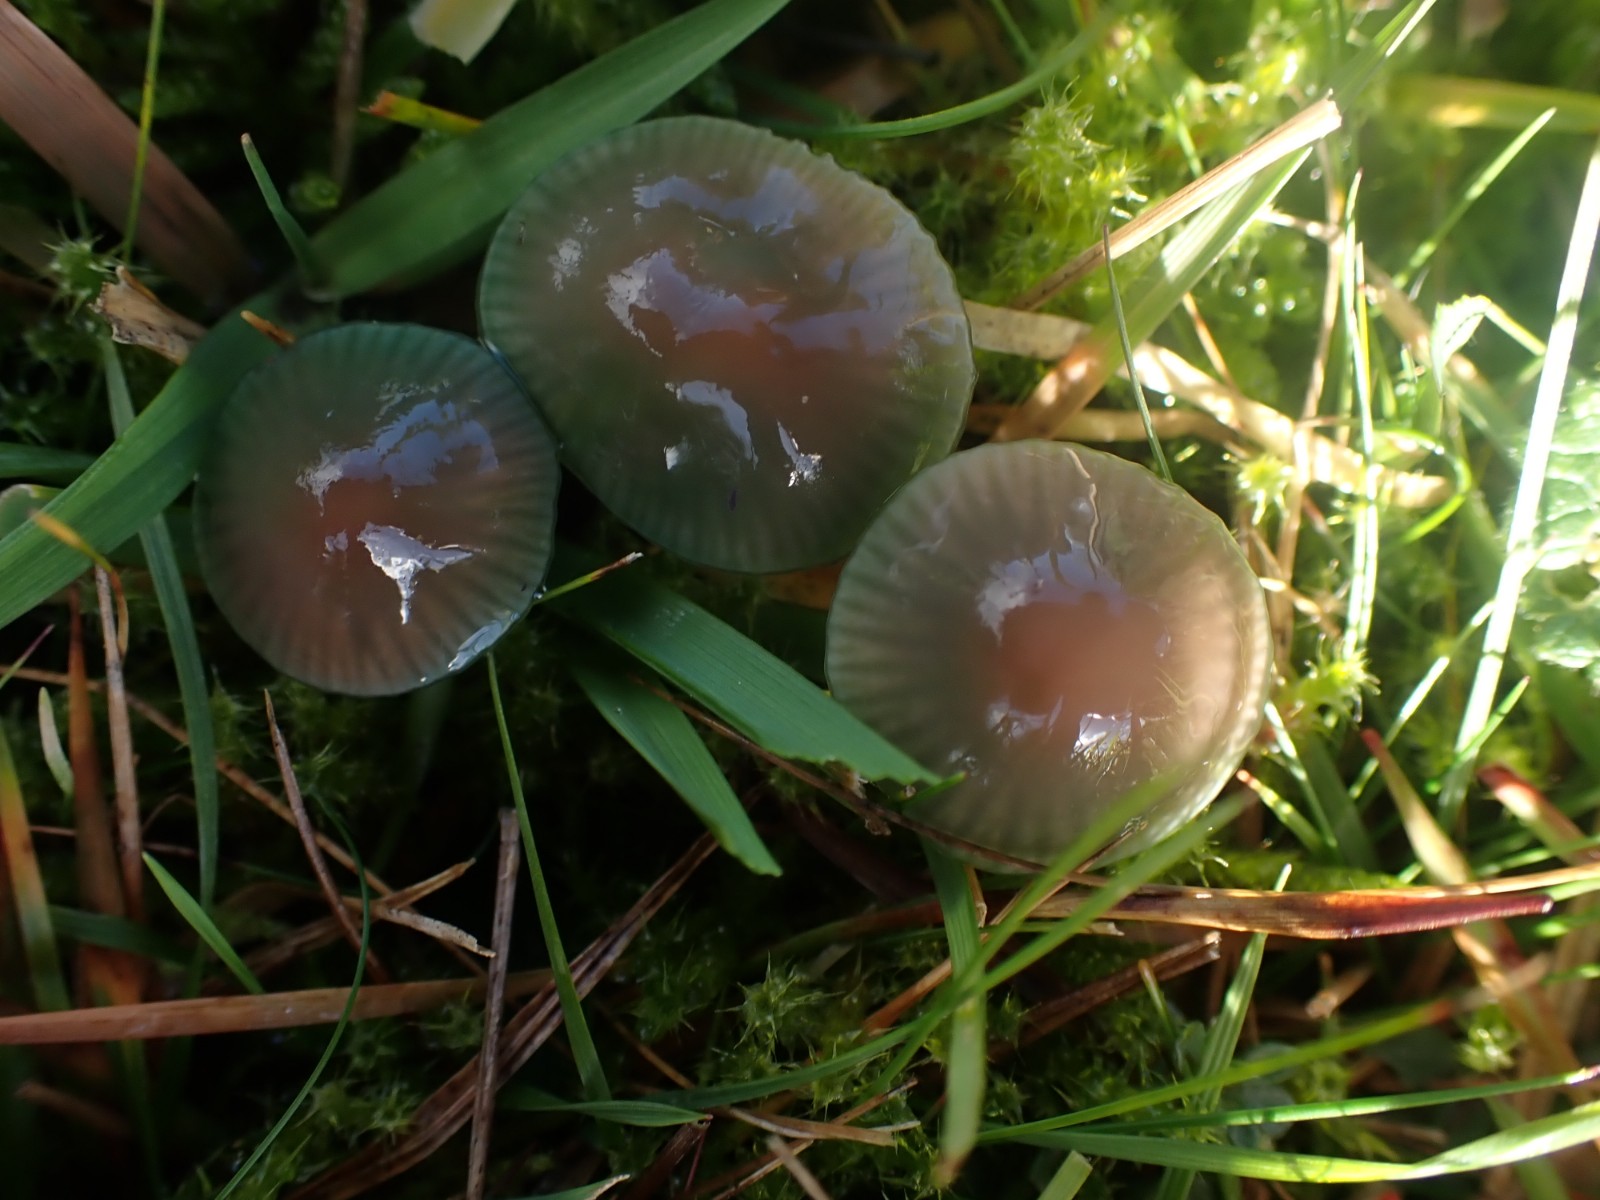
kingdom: Fungi
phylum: Basidiomycota
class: Agaricomycetes
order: Agaricales
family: Hygrophoraceae
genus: Gliophorus
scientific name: Gliophorus psittacinus
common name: papegøje-vokshat
